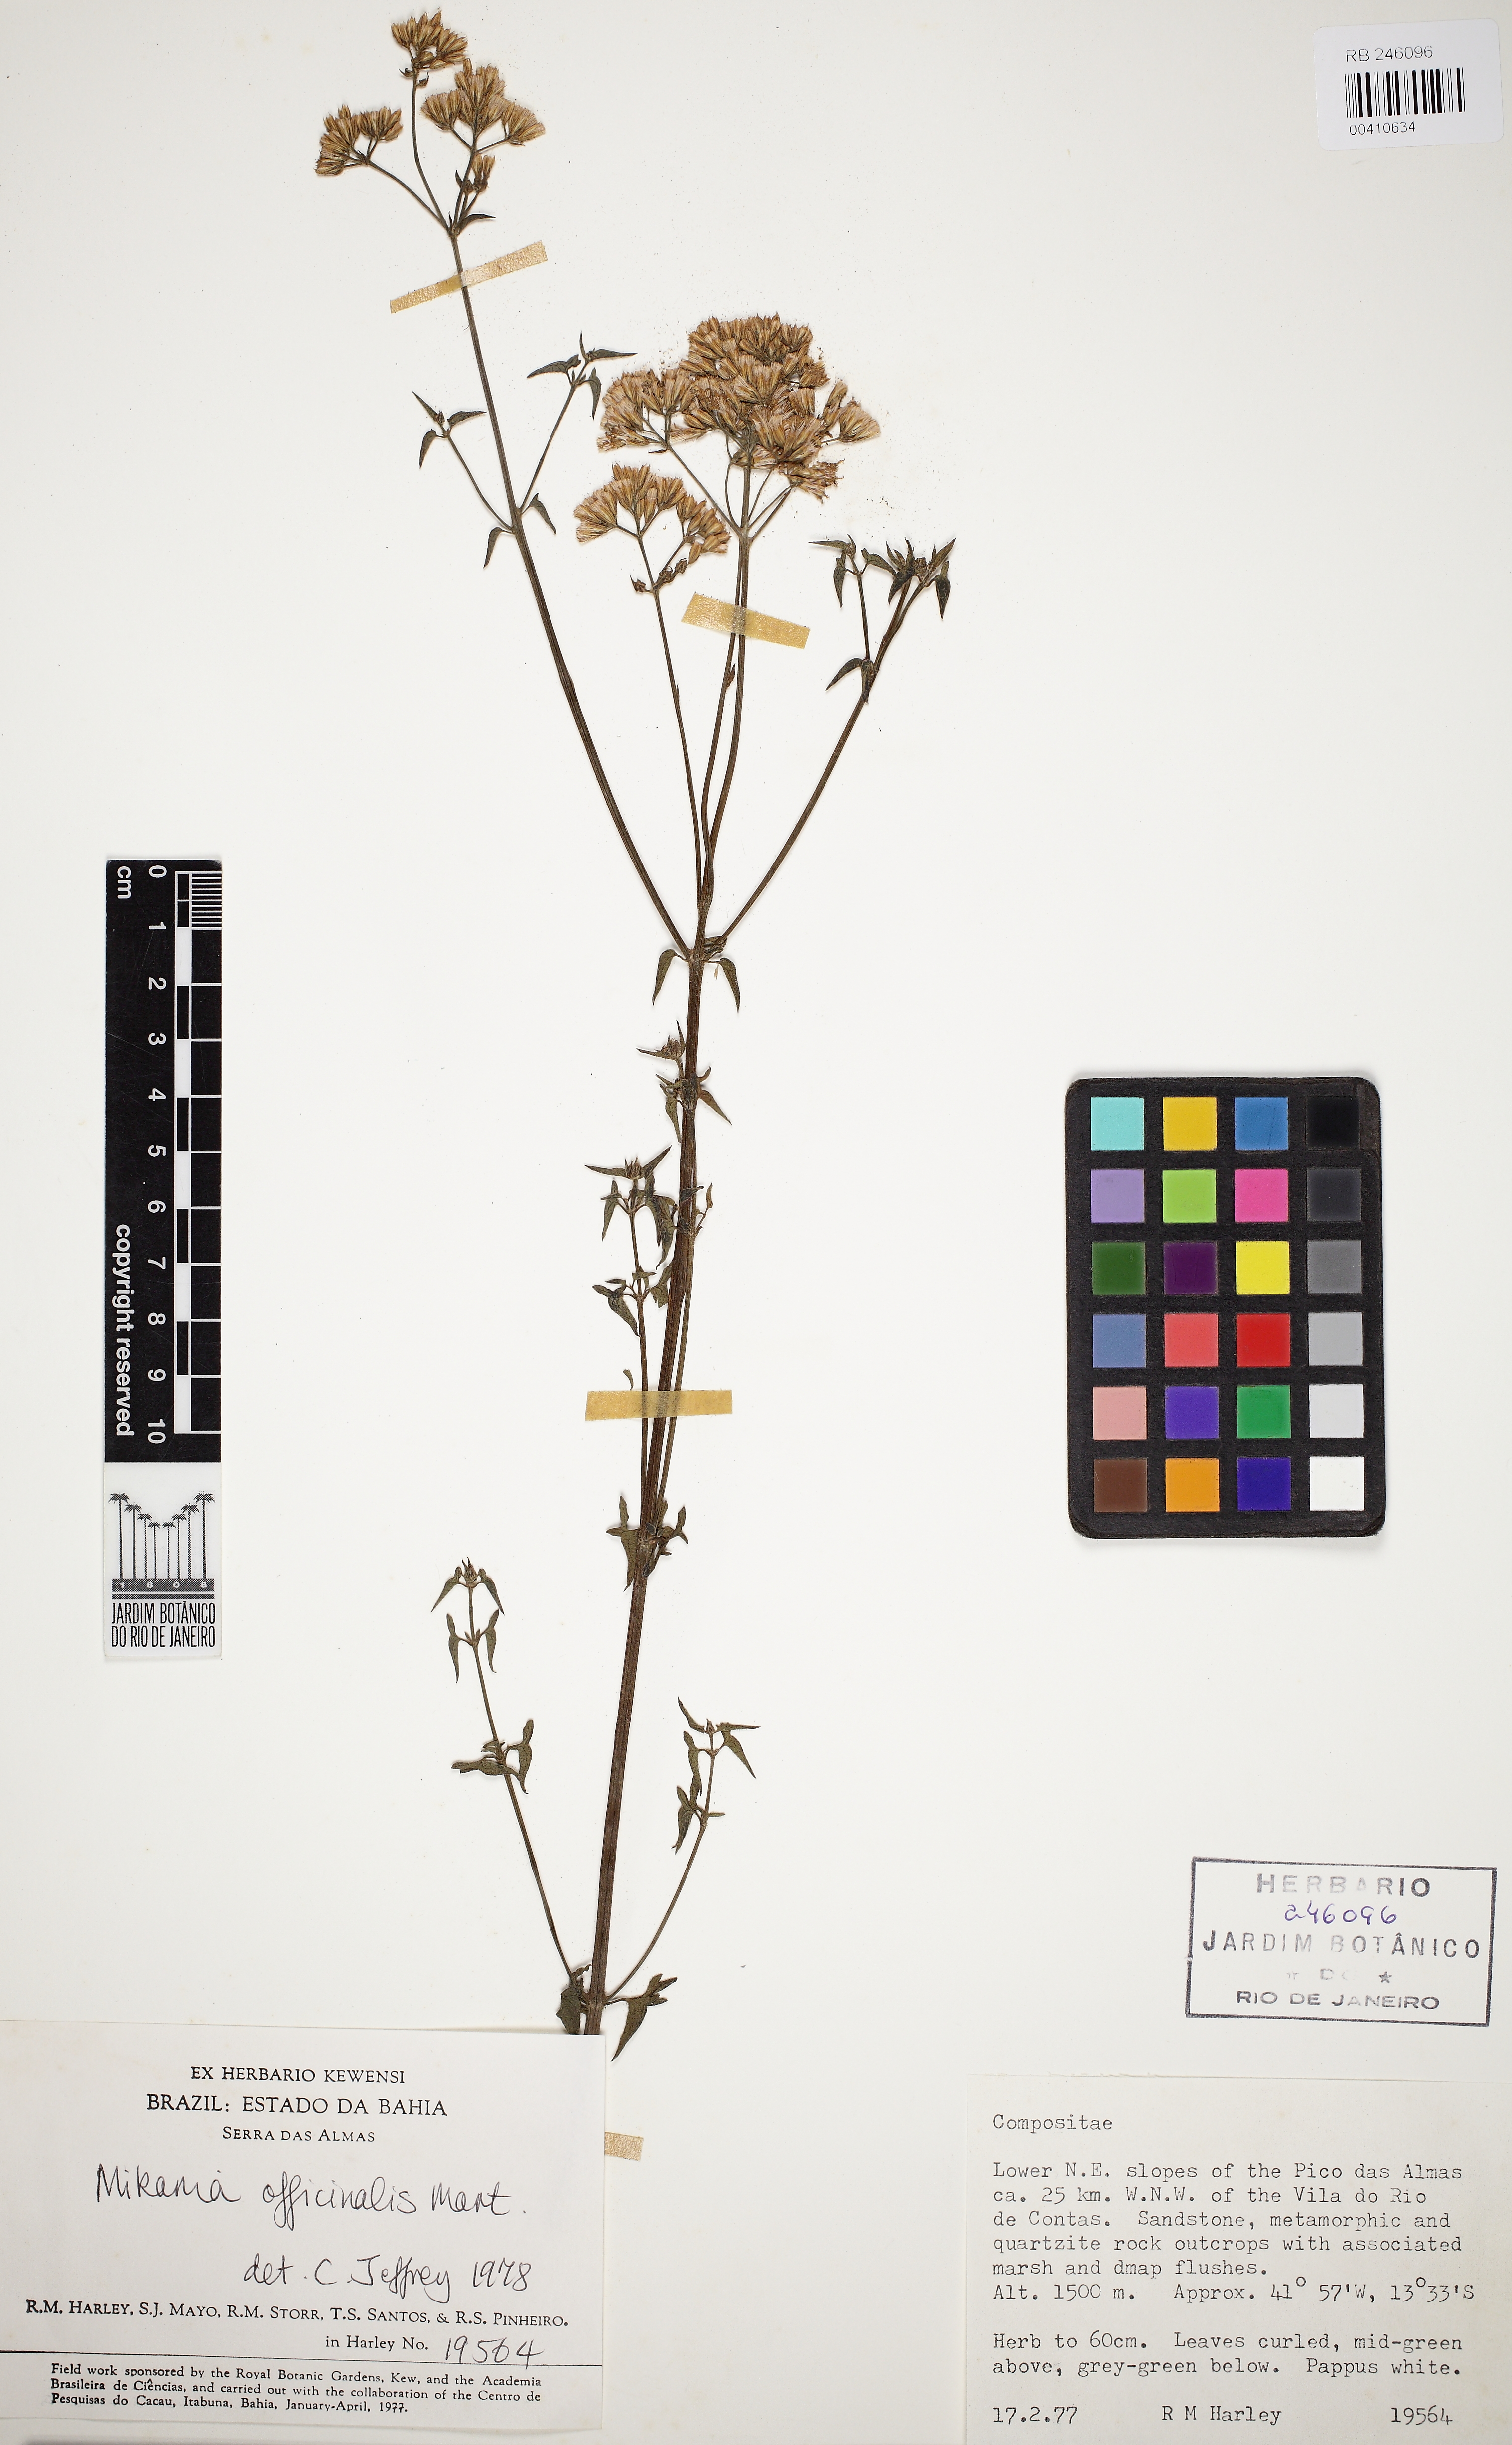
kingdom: Plantae
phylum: Tracheophyta
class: Magnoliopsida
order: Asterales
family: Asteraceae
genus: Mikania
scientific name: Mikania officinalis
